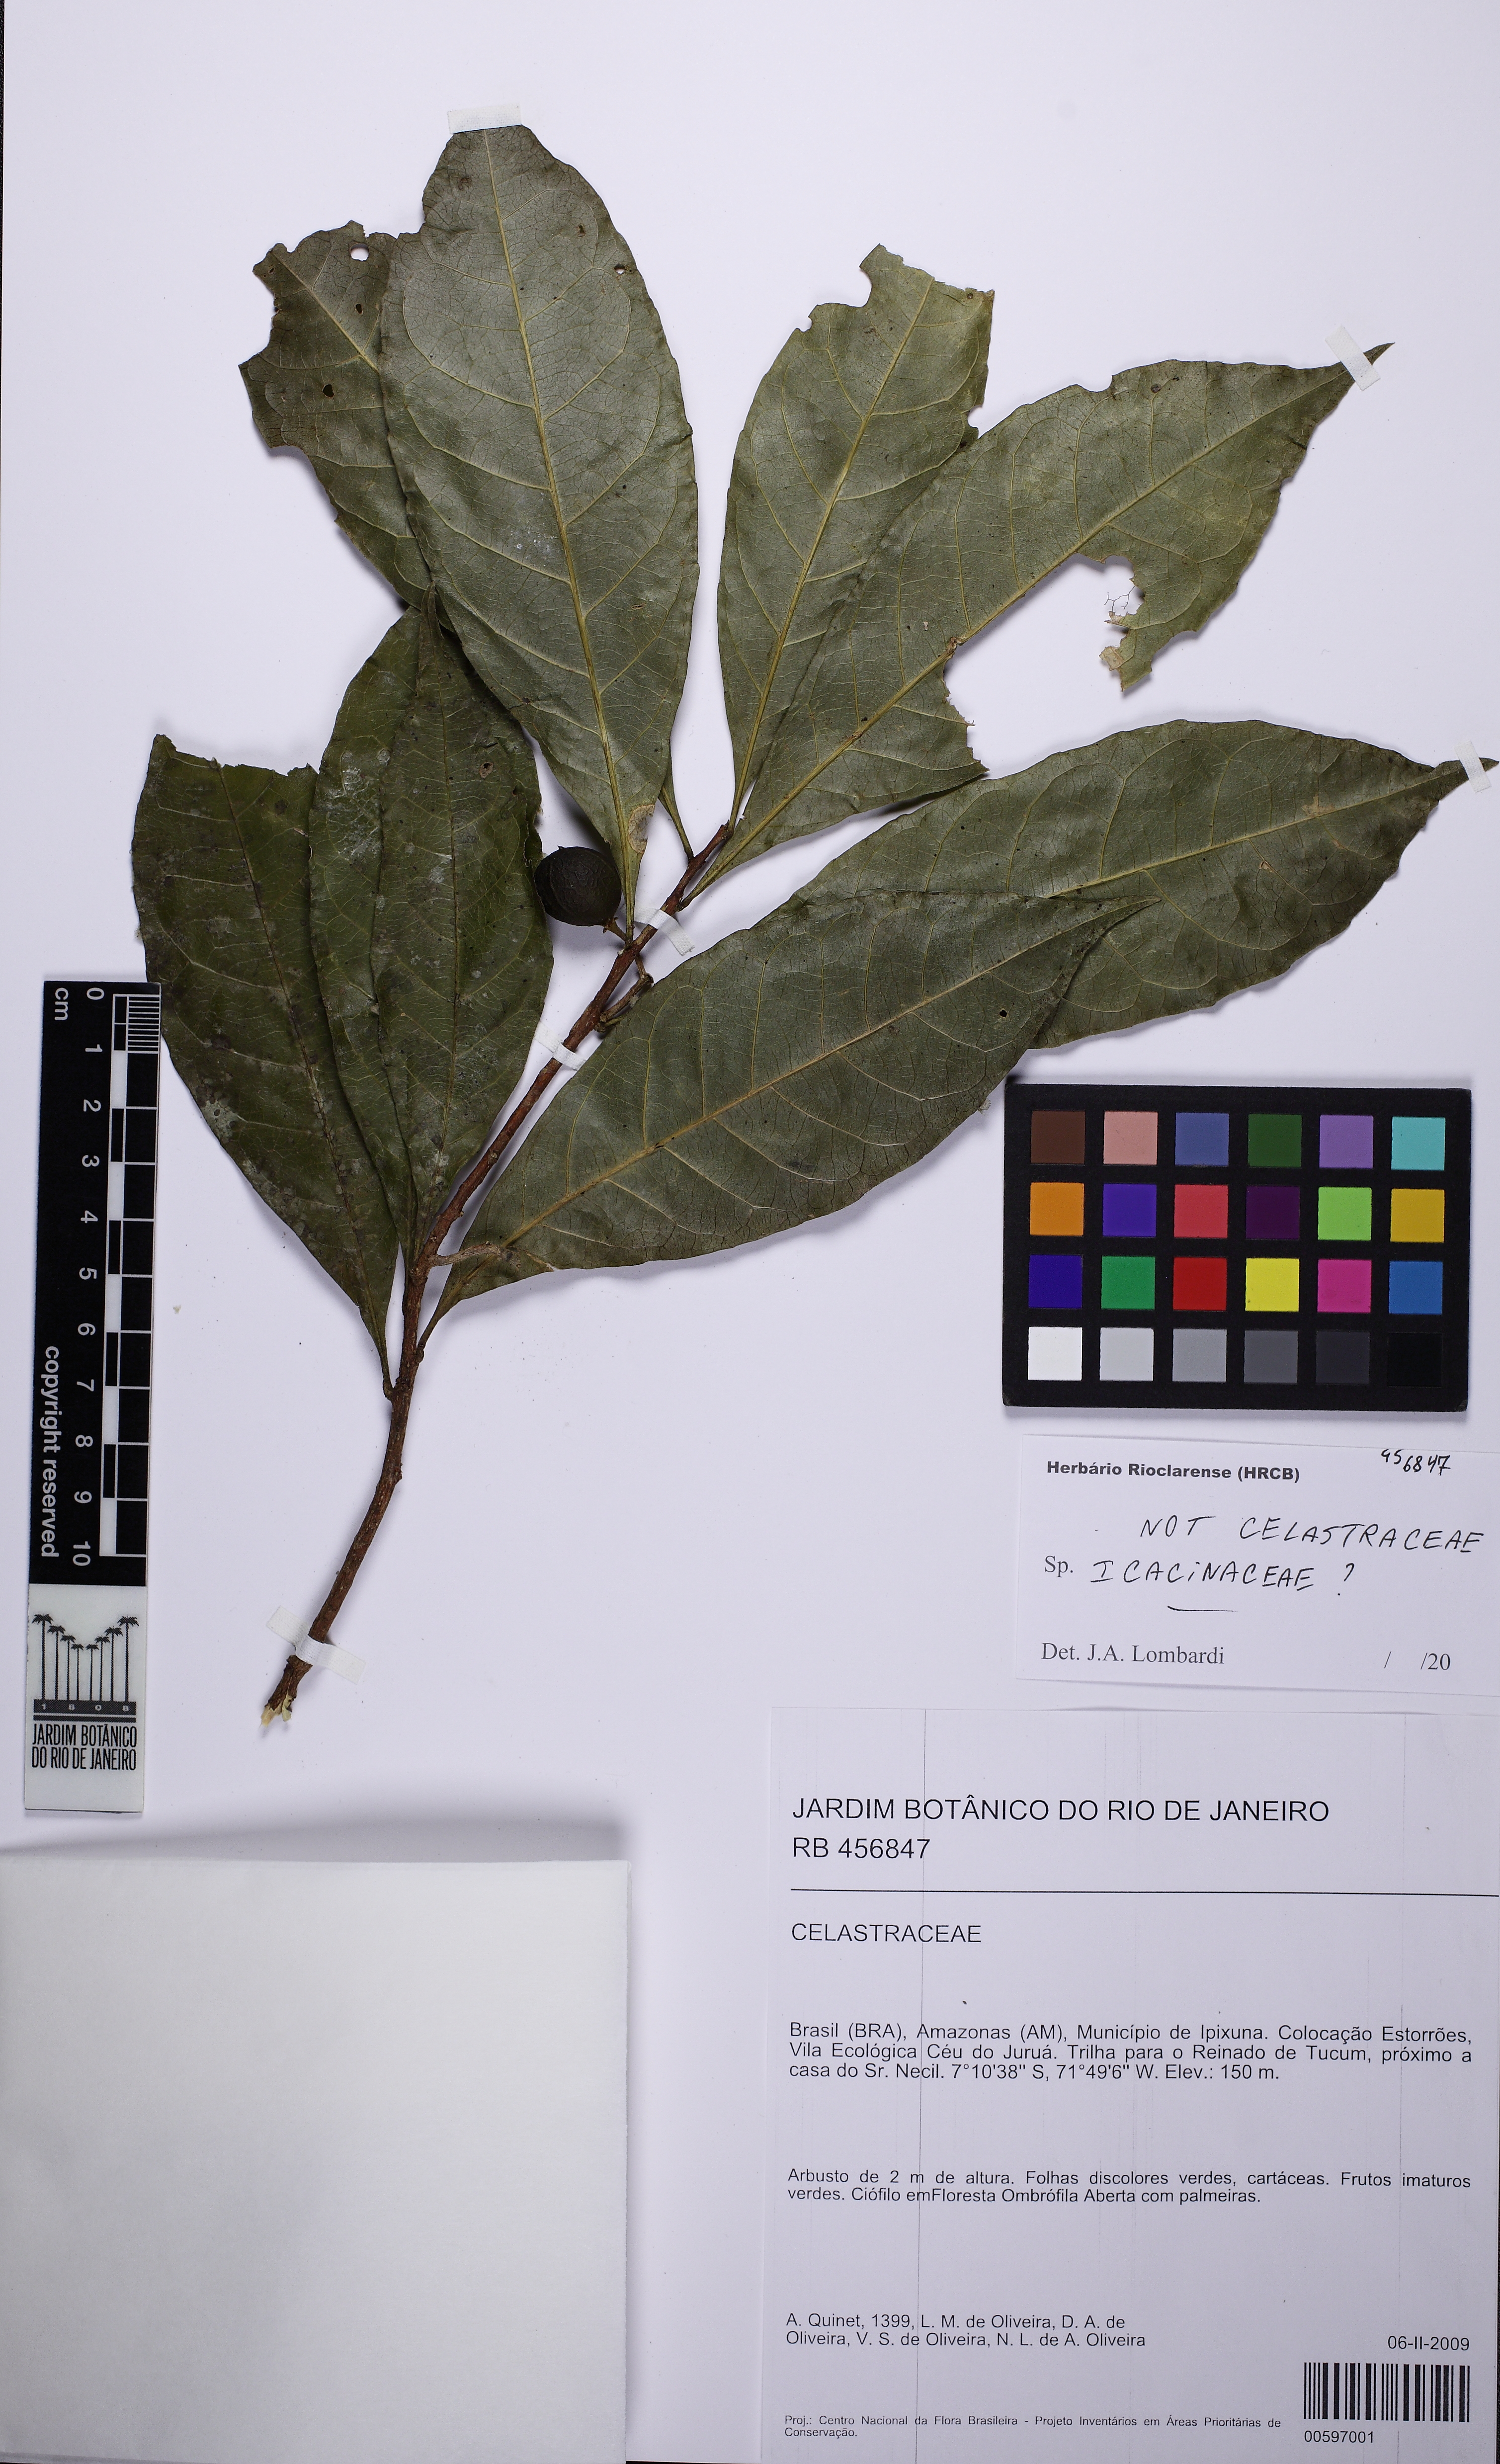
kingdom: Plantae
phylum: Tracheophyta
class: Magnoliopsida
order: Icacinales
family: Icacinaceae
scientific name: Icacinaceae
